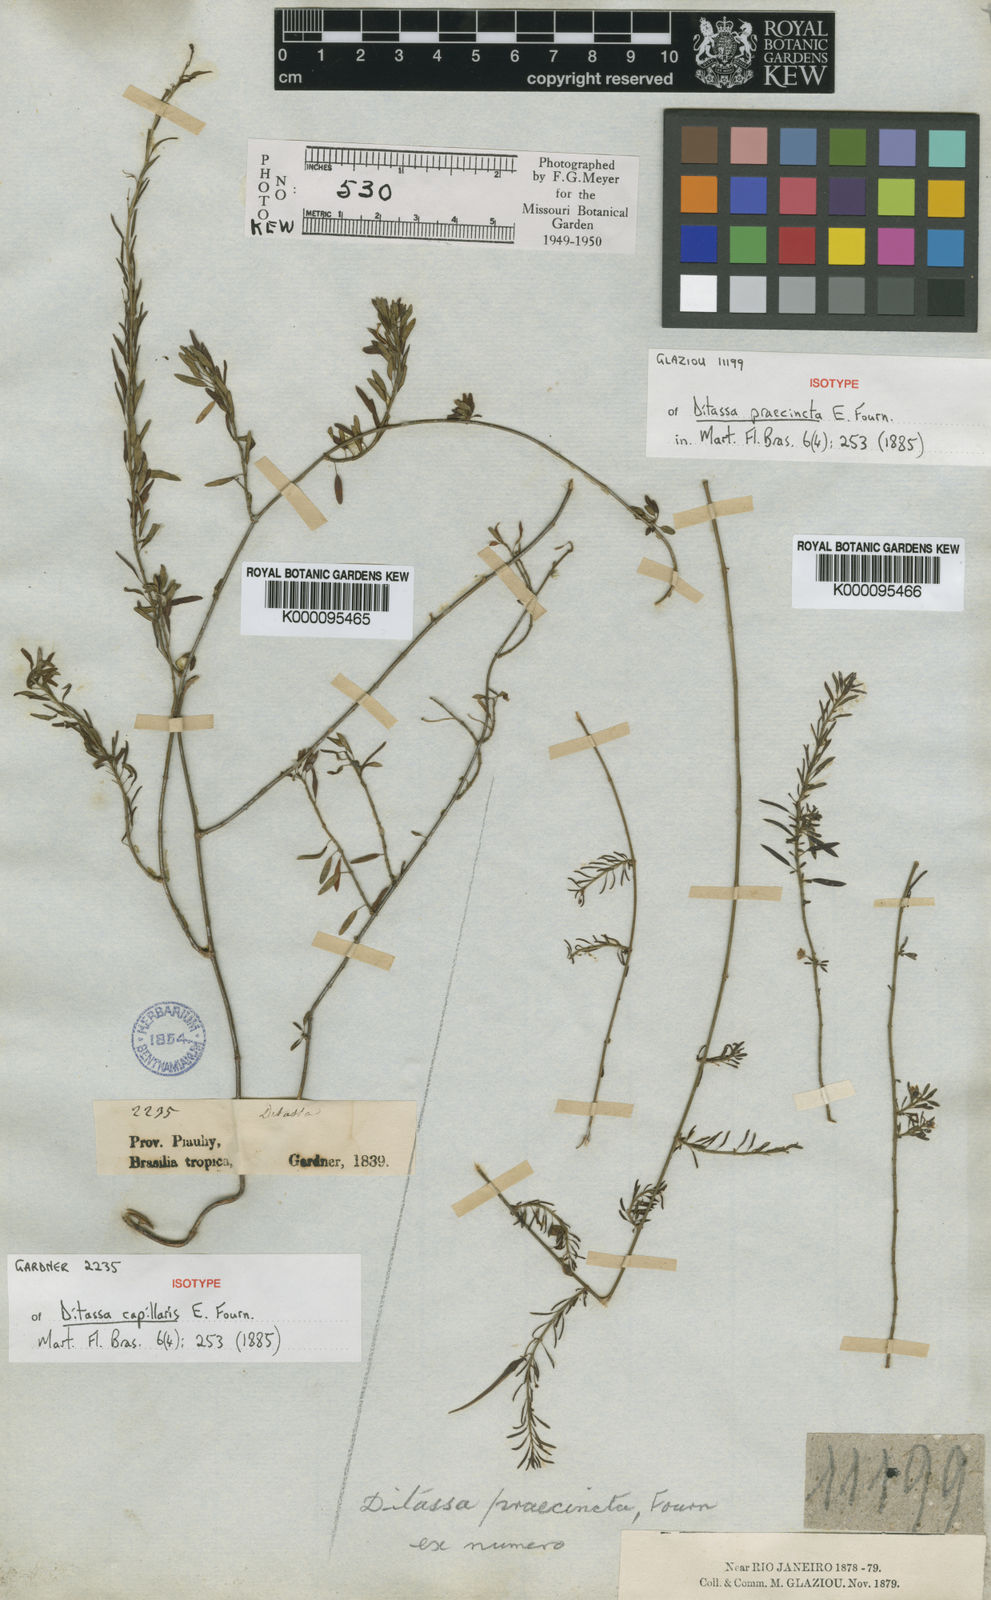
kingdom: Plantae
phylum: Tracheophyta
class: Magnoliopsida
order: Gentianales
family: Apocynaceae
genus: Ditassa
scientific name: Ditassa capillaris
